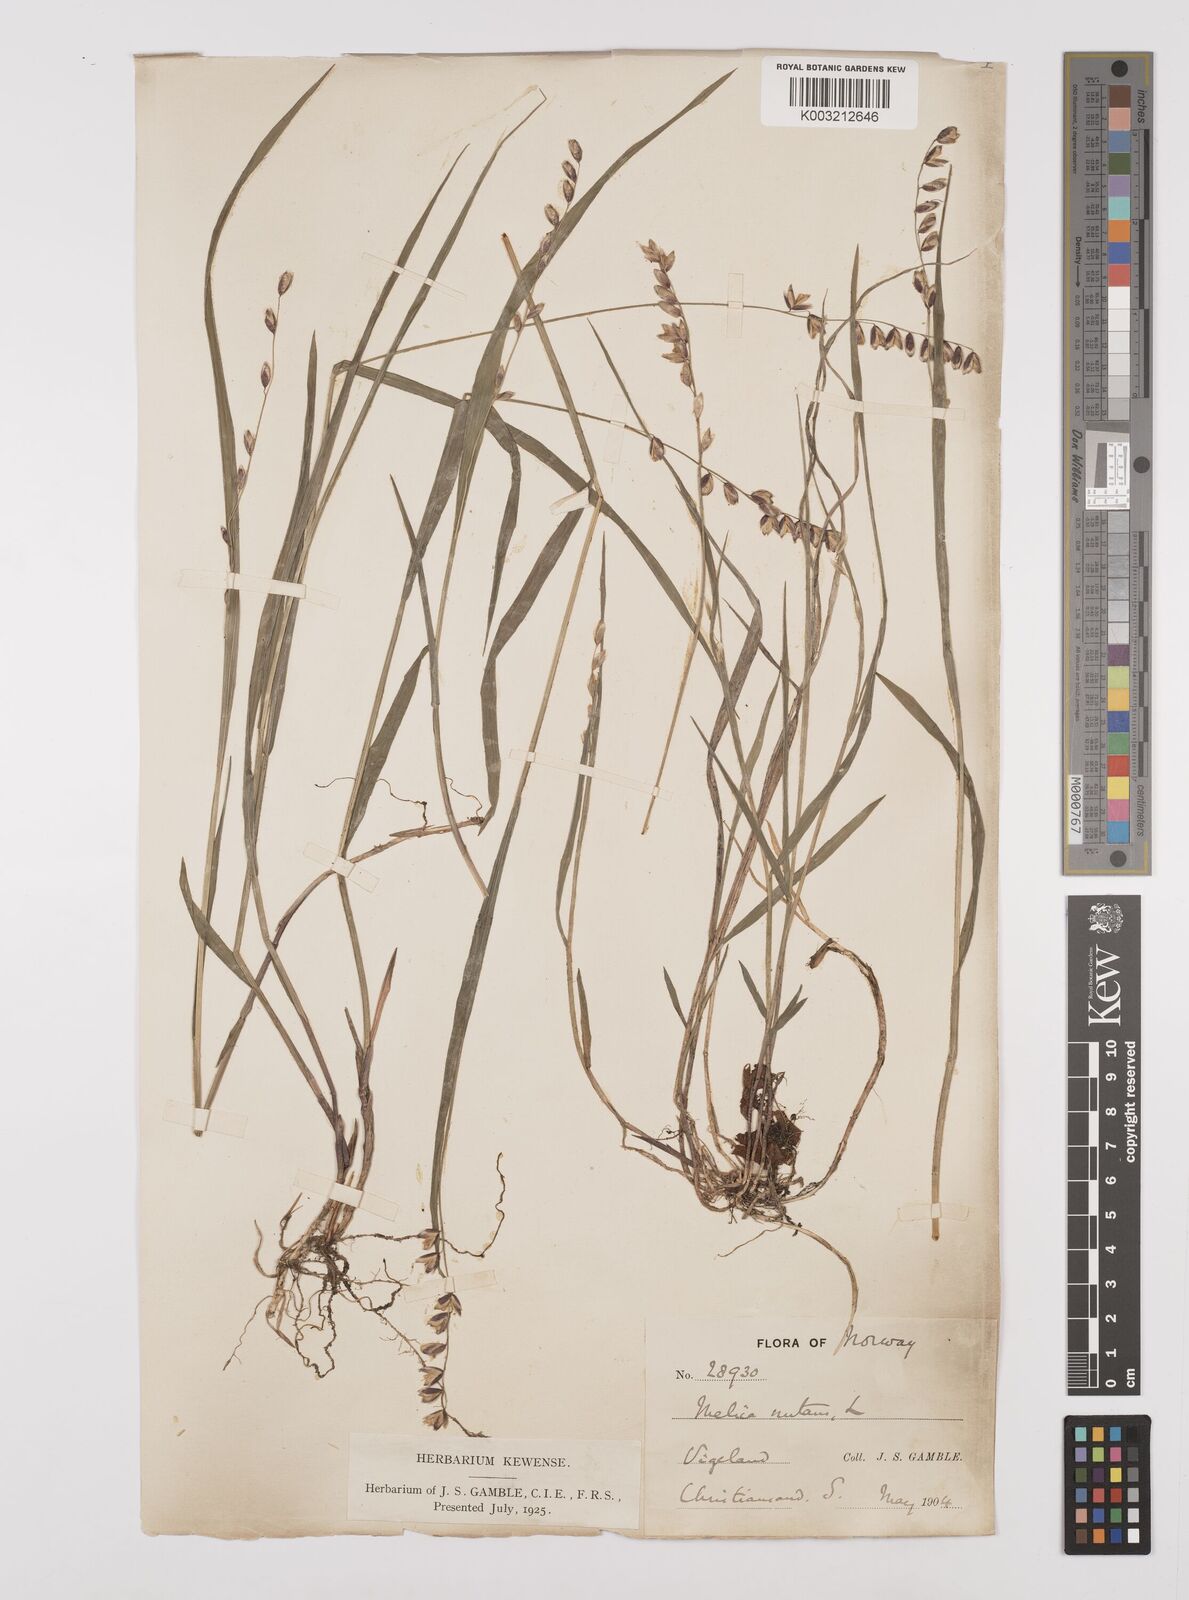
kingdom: Plantae
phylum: Tracheophyta
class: Liliopsida
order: Poales
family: Poaceae
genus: Melica
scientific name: Melica
